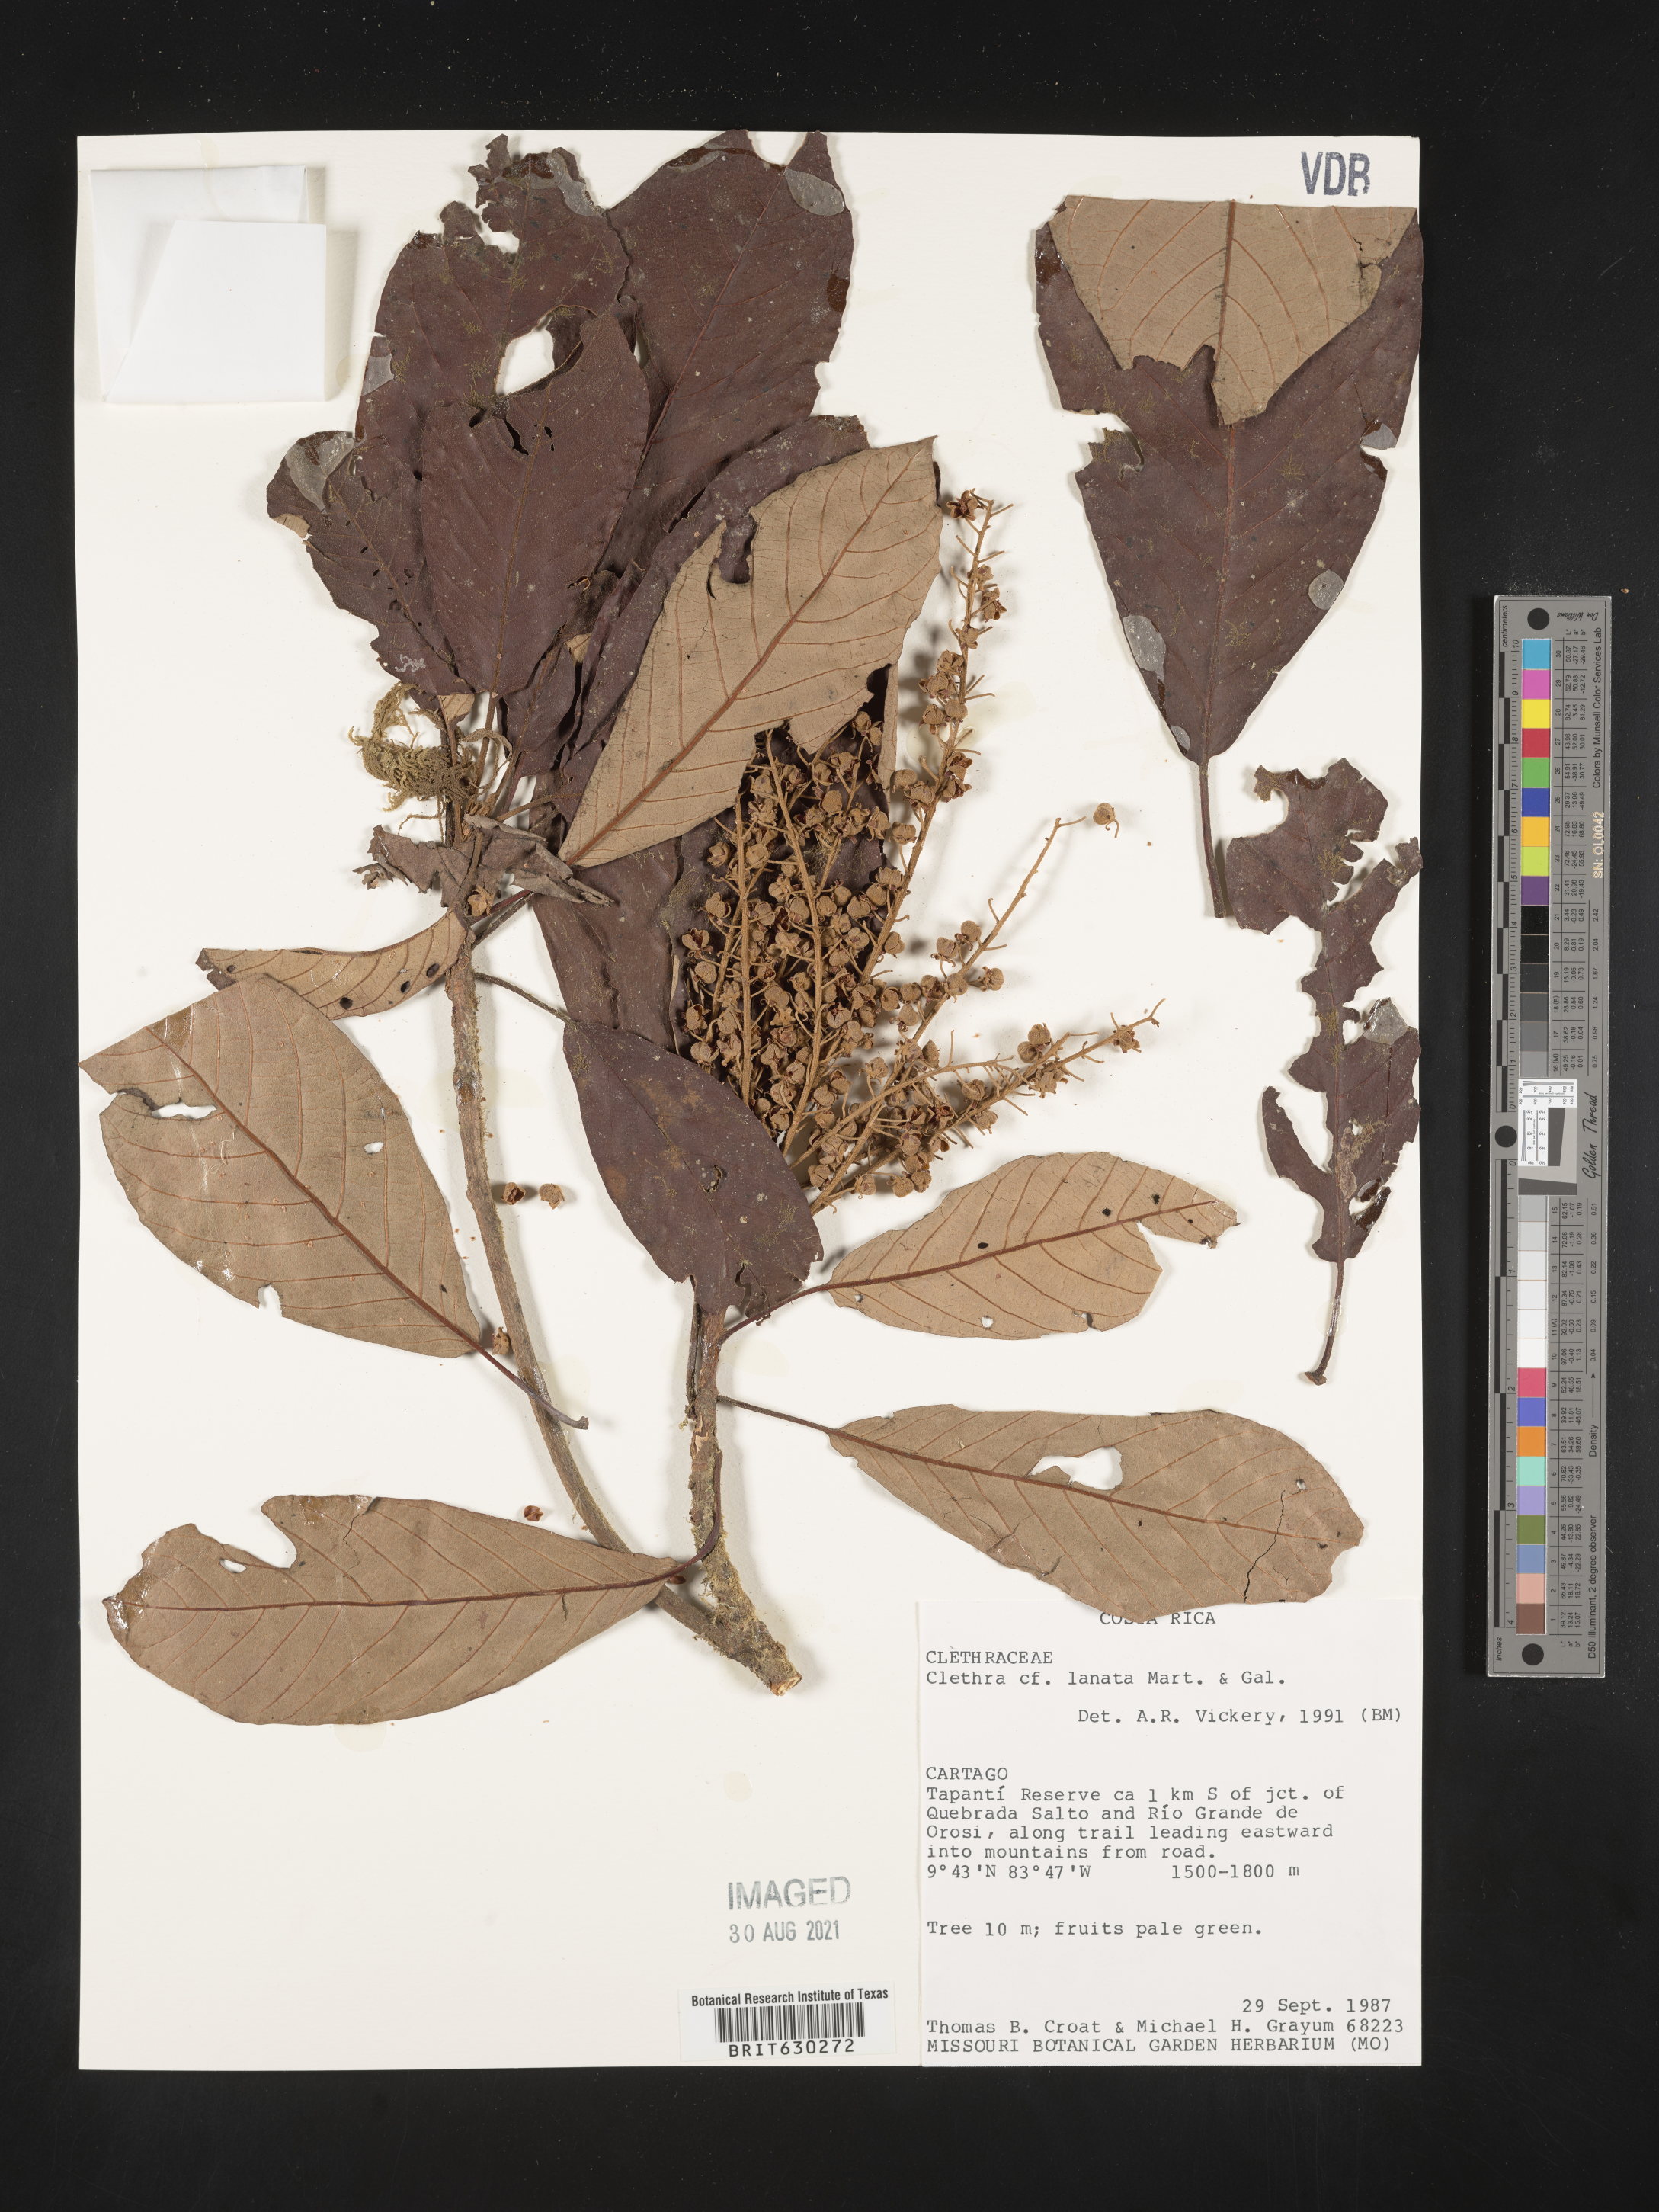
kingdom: Plantae
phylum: Tracheophyta
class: Magnoliopsida
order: Ericales
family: Clethraceae
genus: Clethra
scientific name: Clethra lanata
